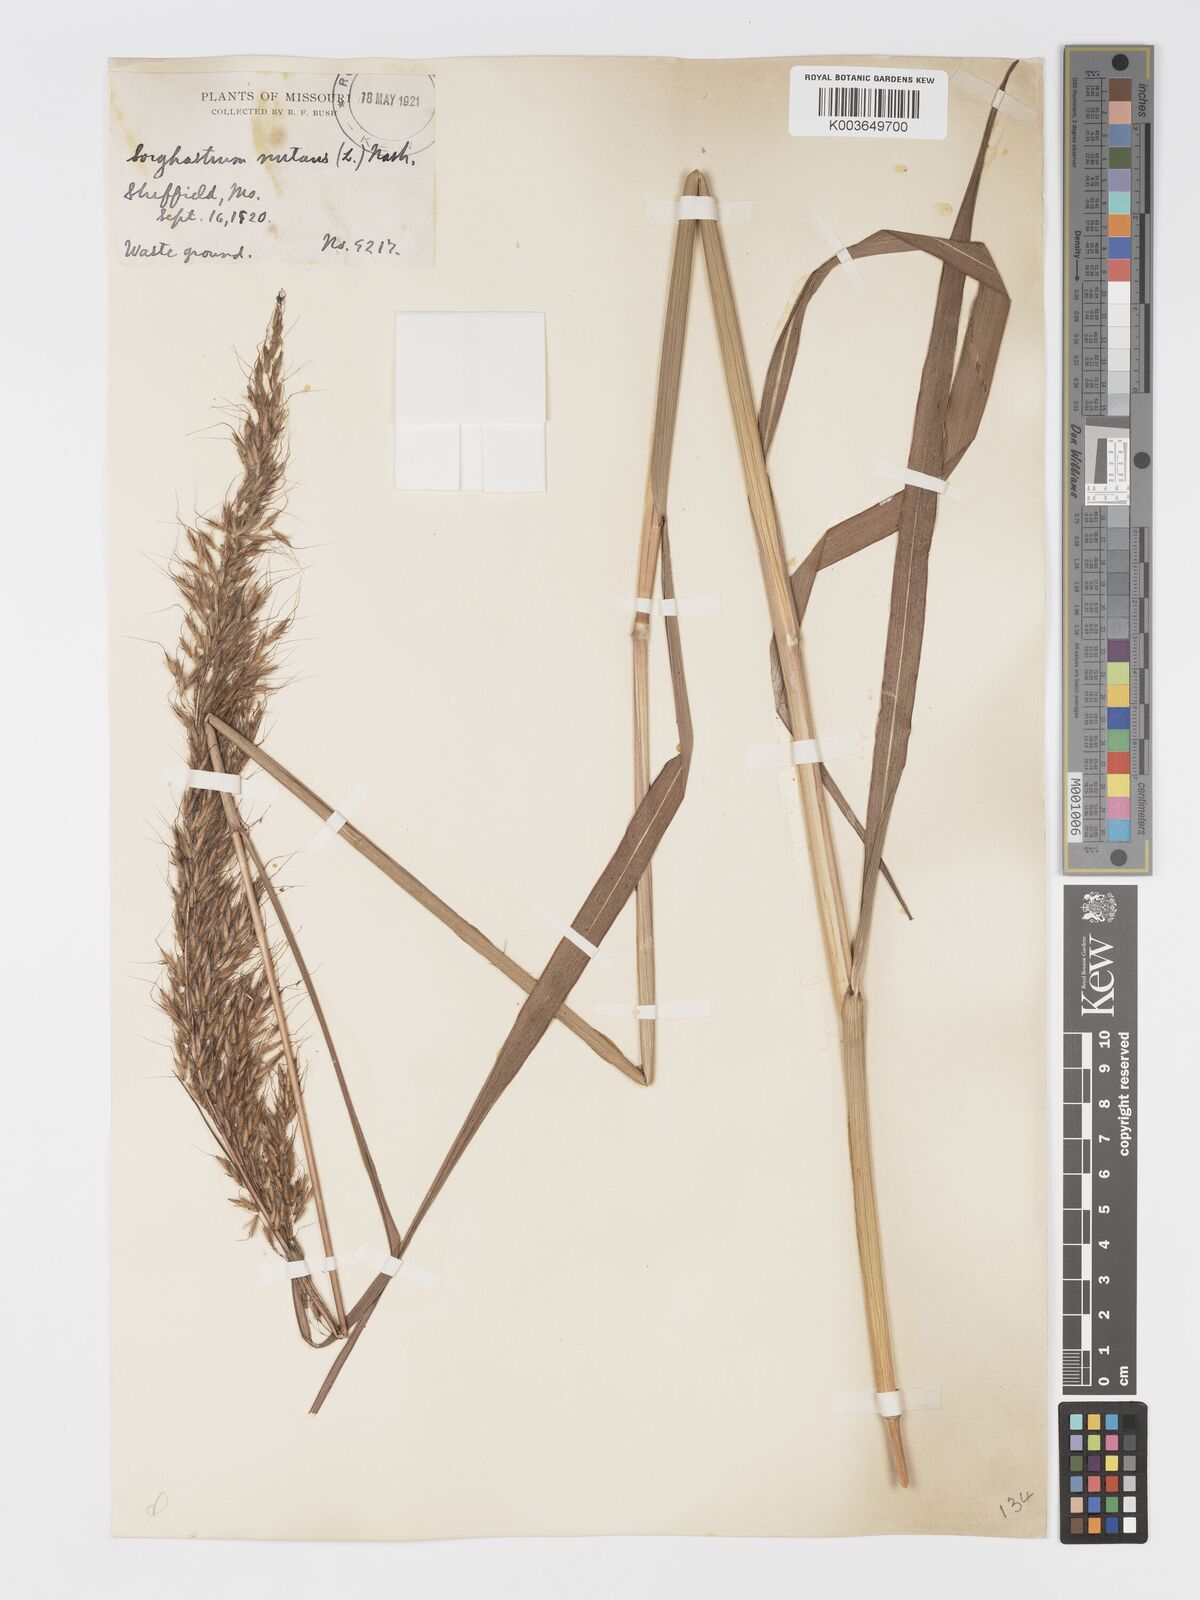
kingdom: Plantae
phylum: Tracheophyta
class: Liliopsida
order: Poales
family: Poaceae
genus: Sorghastrum
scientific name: Sorghastrum nutans
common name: Indian grass
